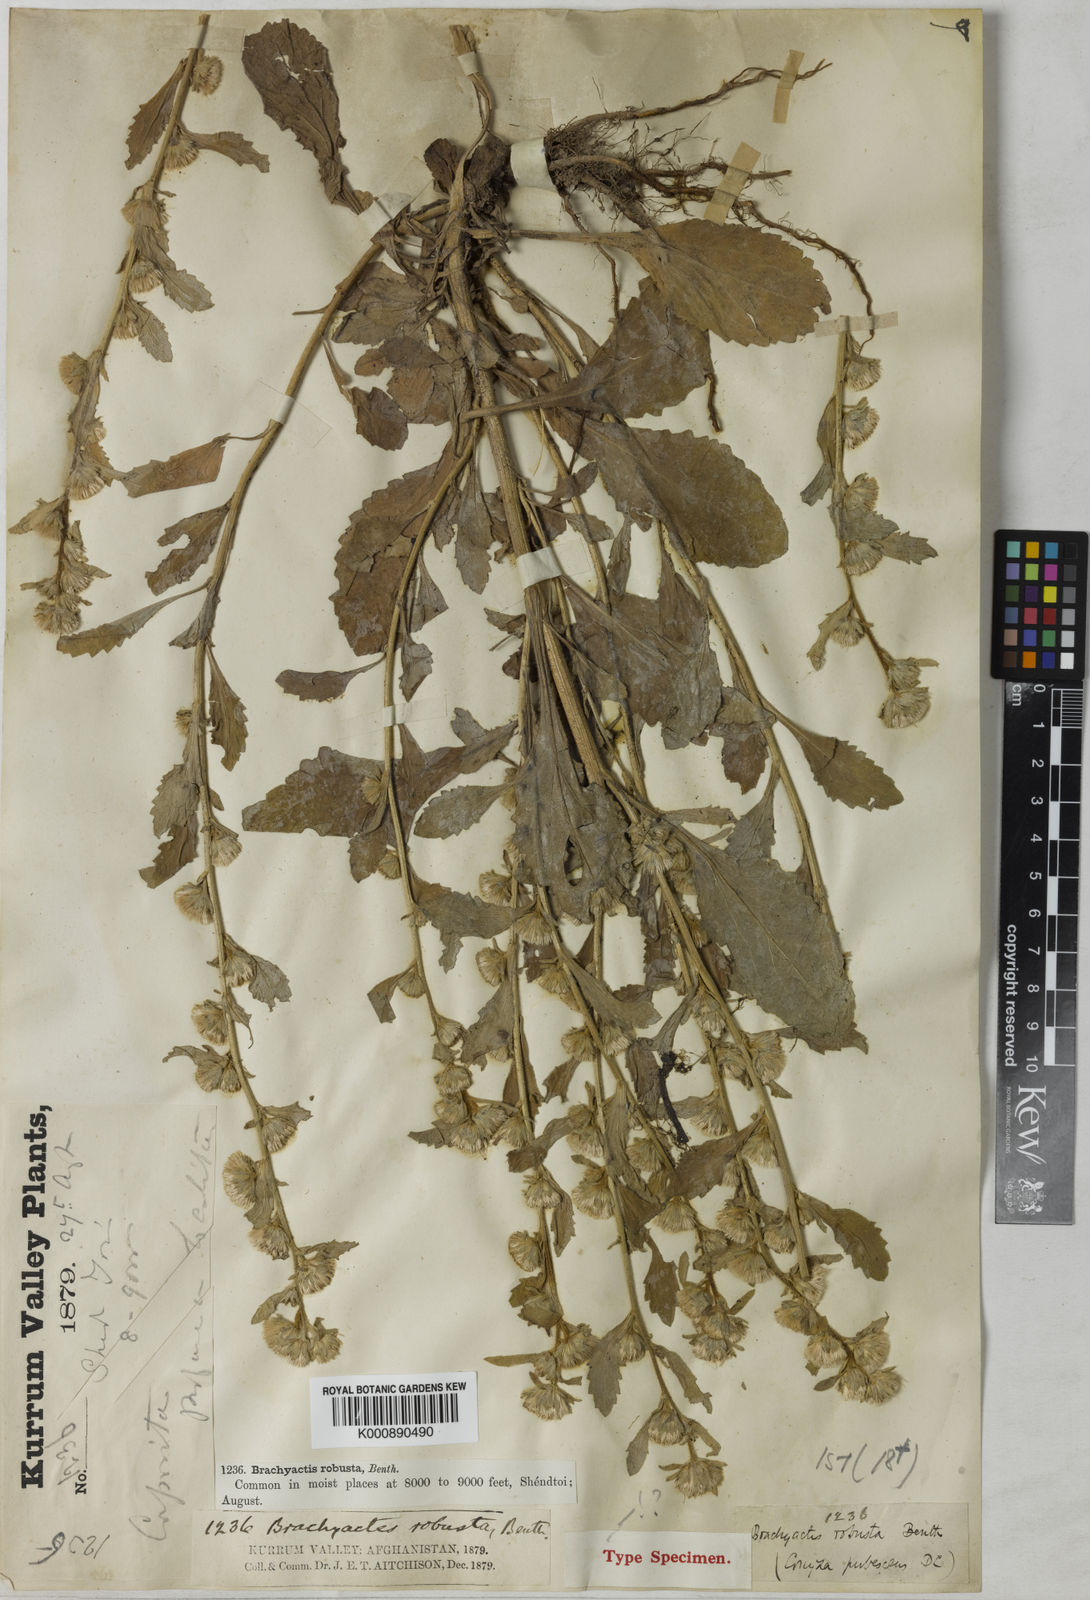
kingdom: Plantae
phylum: Tracheophyta
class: Magnoliopsida
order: Asterales
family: Asteraceae
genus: Aster
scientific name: Aster
